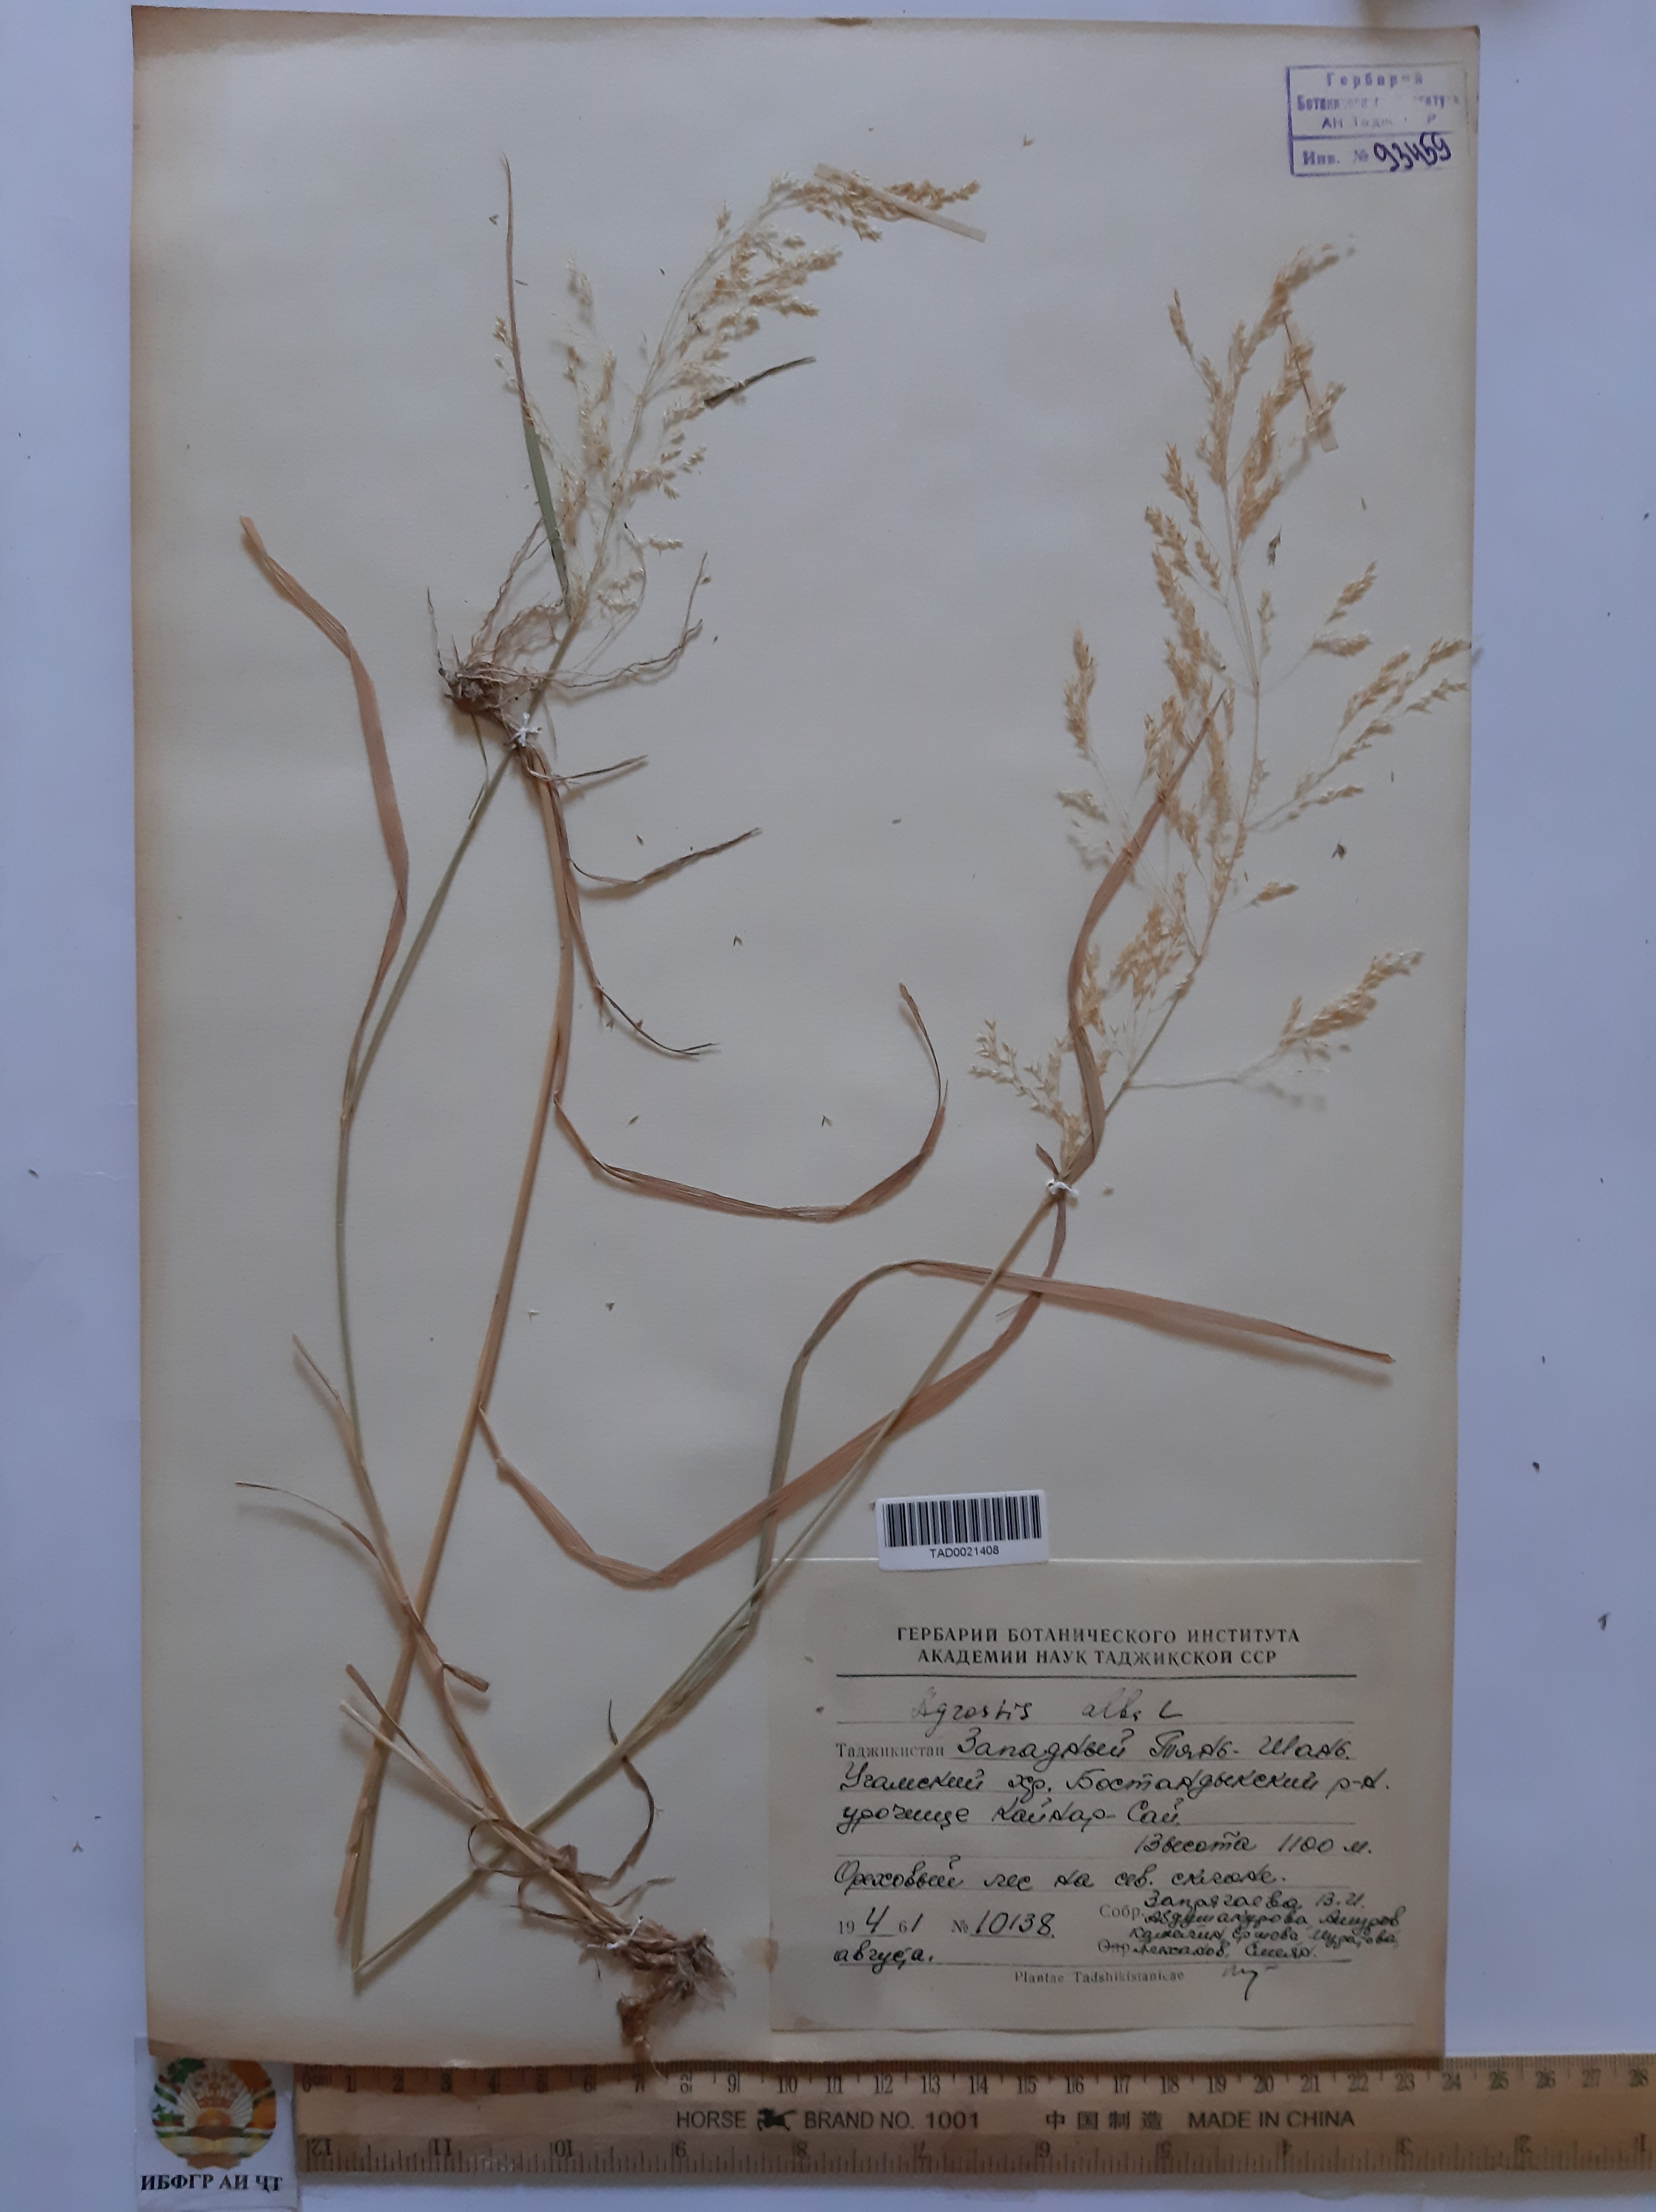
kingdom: Plantae
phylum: Tracheophyta
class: Liliopsida
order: Poales
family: Poaceae
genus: Poa
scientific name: Poa nemoralis
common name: Wood bluegrass
